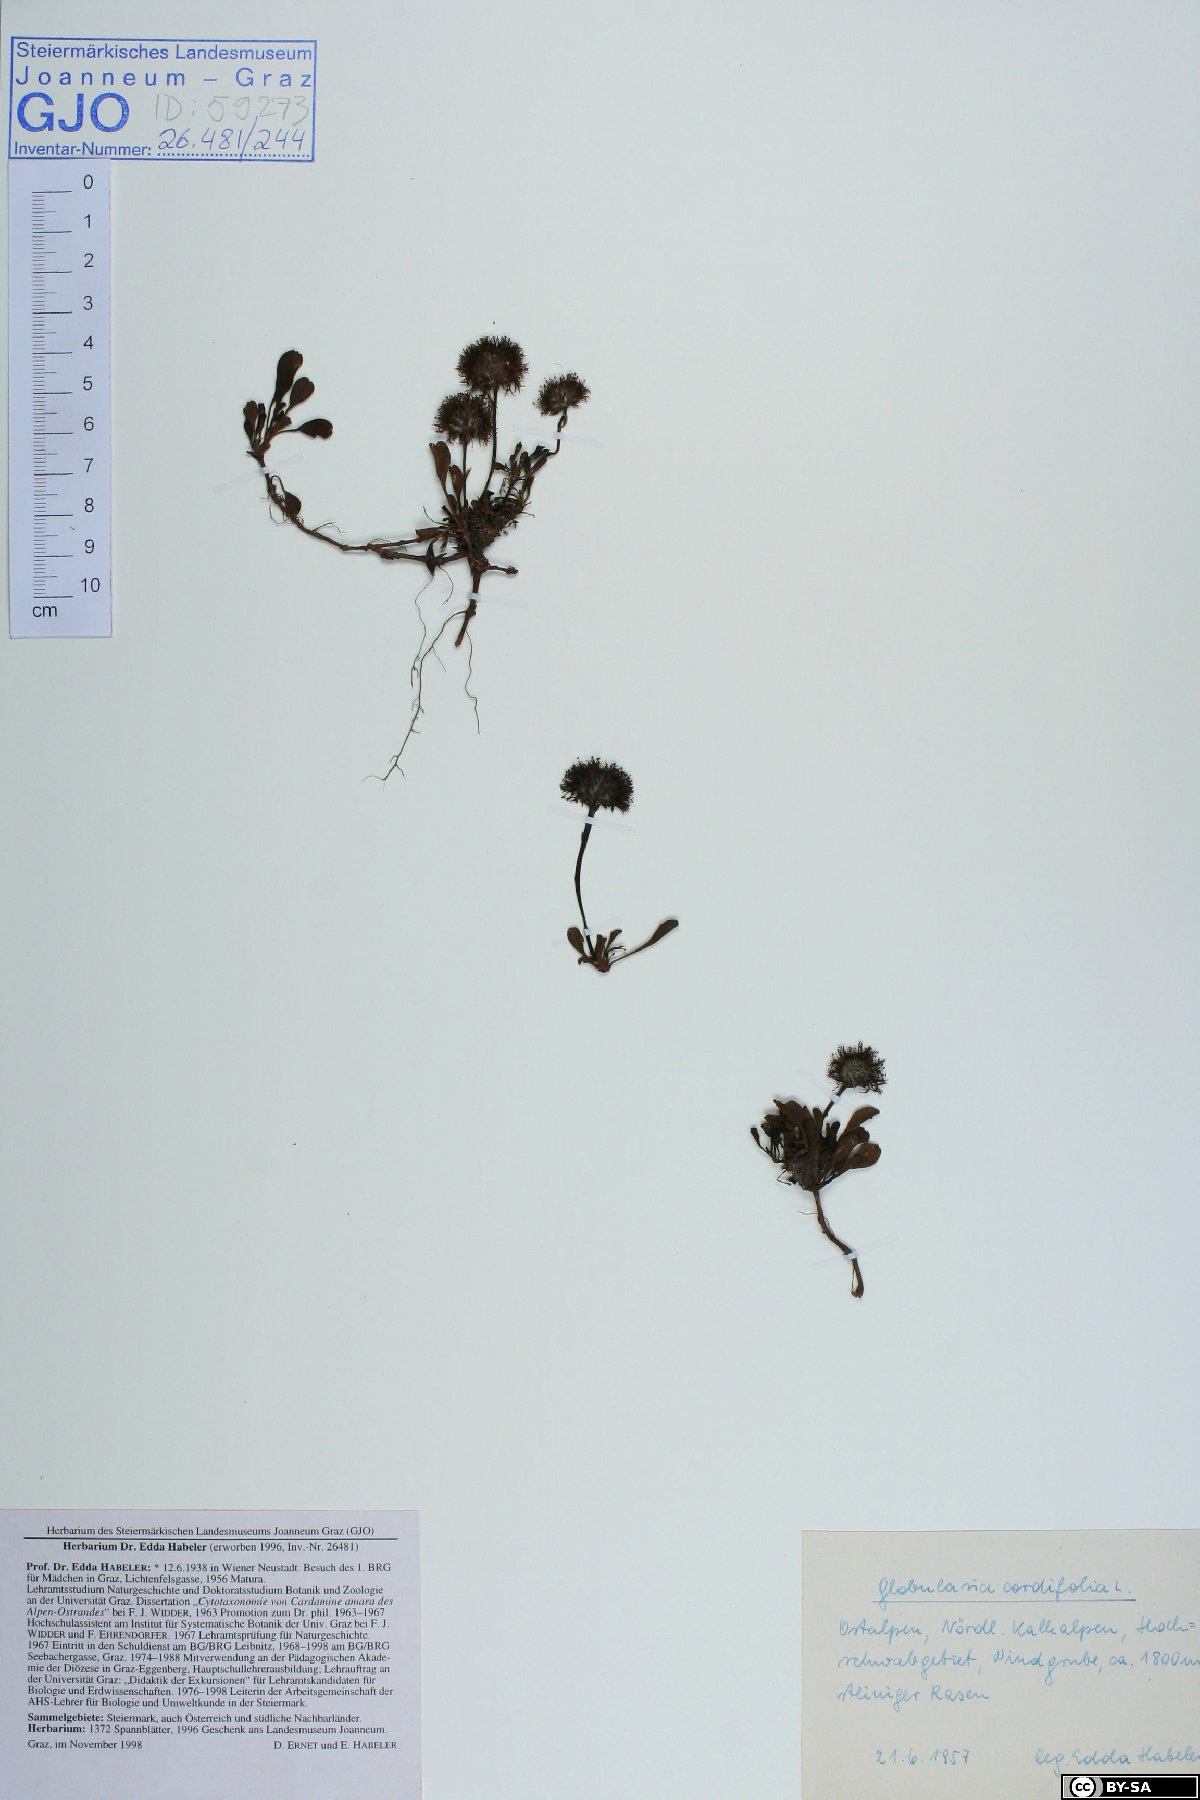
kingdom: Plantae
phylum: Tracheophyta
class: Magnoliopsida
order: Lamiales
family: Plantaginaceae
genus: Globularia
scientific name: Globularia cordifolia
